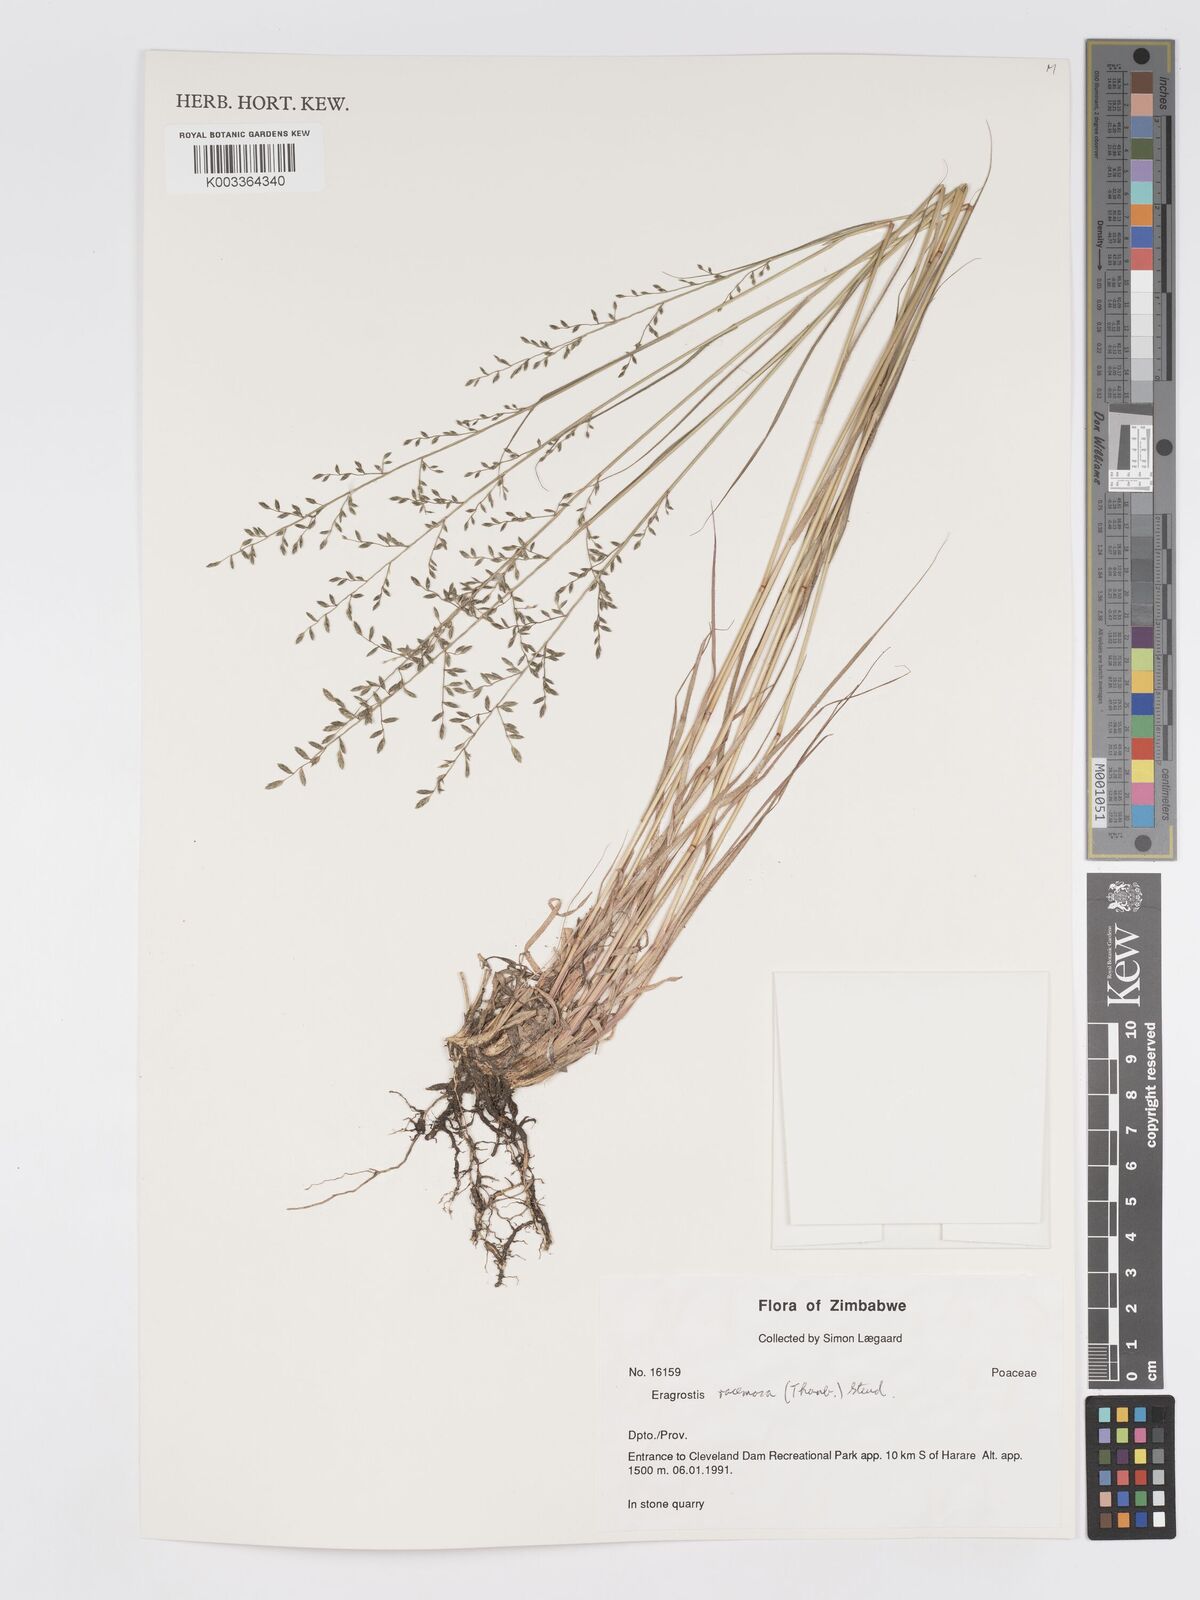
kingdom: Plantae
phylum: Tracheophyta
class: Liliopsida
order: Poales
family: Poaceae
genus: Eragrostis
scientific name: Eragrostis racemosa
